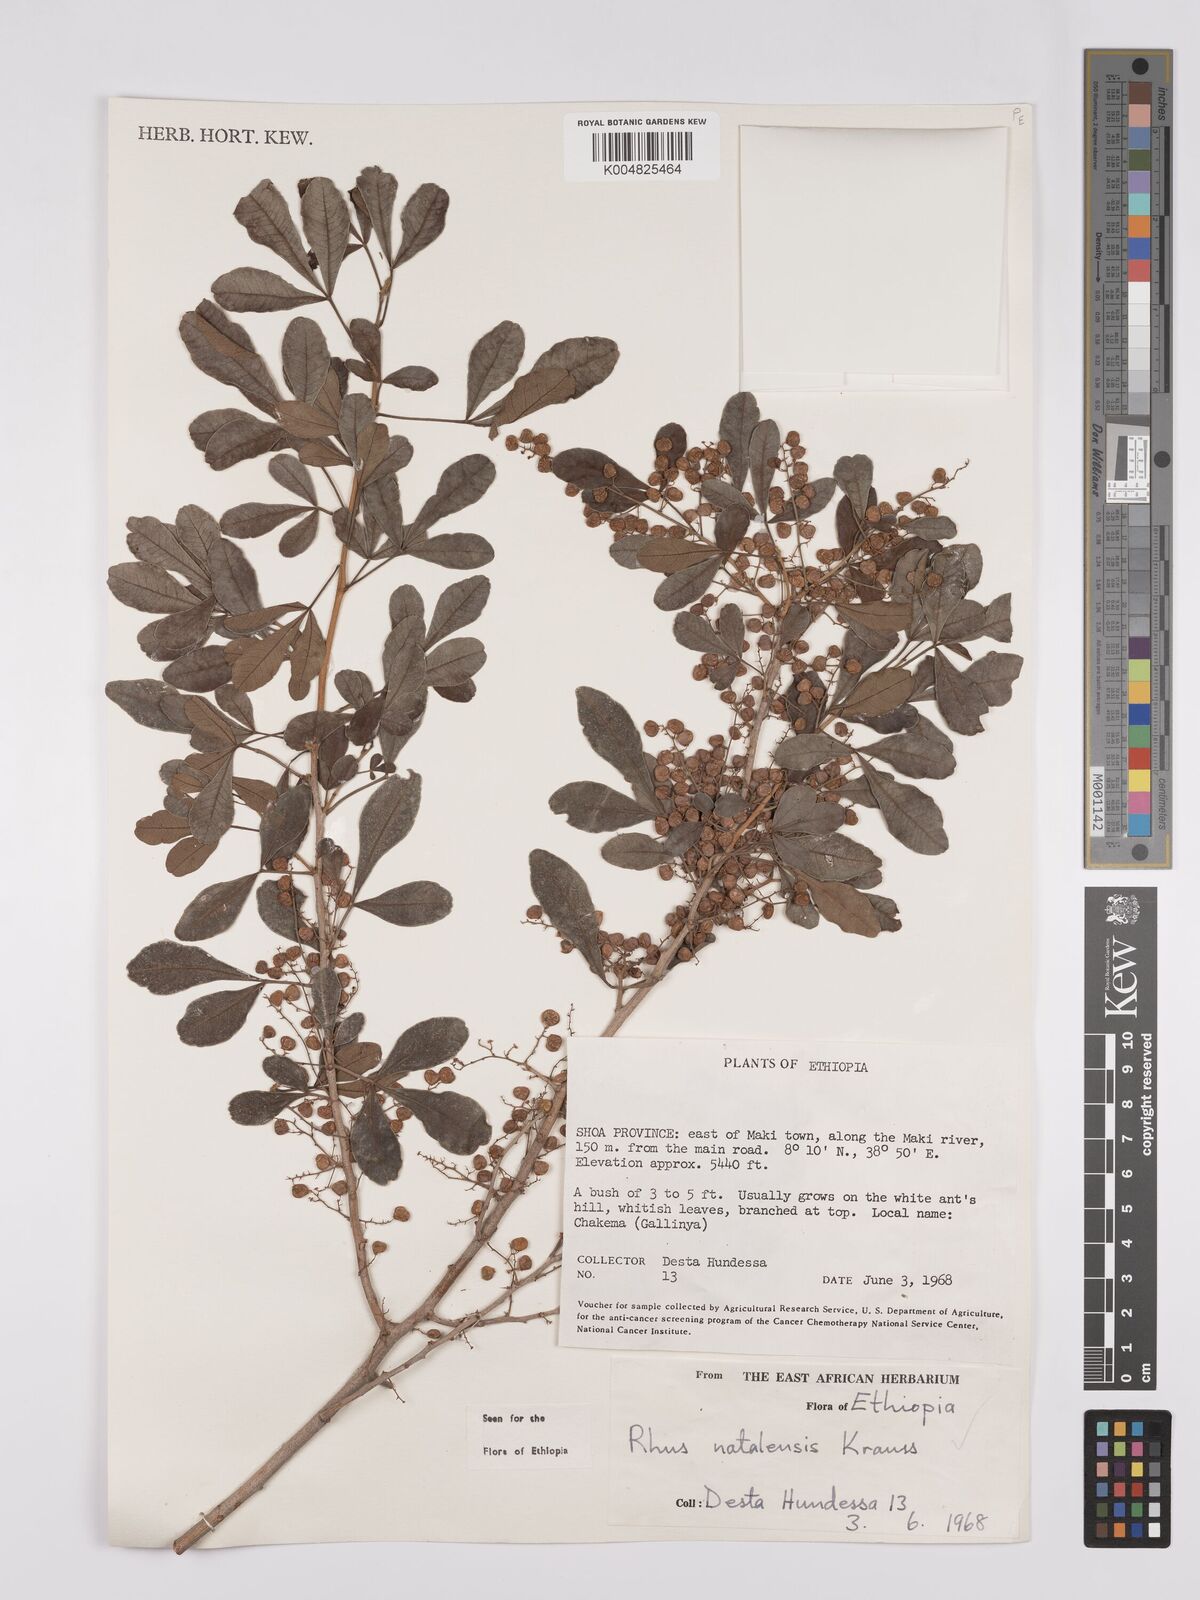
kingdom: Plantae
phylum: Tracheophyta
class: Magnoliopsida
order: Sapindales
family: Anacardiaceae
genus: Searsia
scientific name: Searsia natalensis
